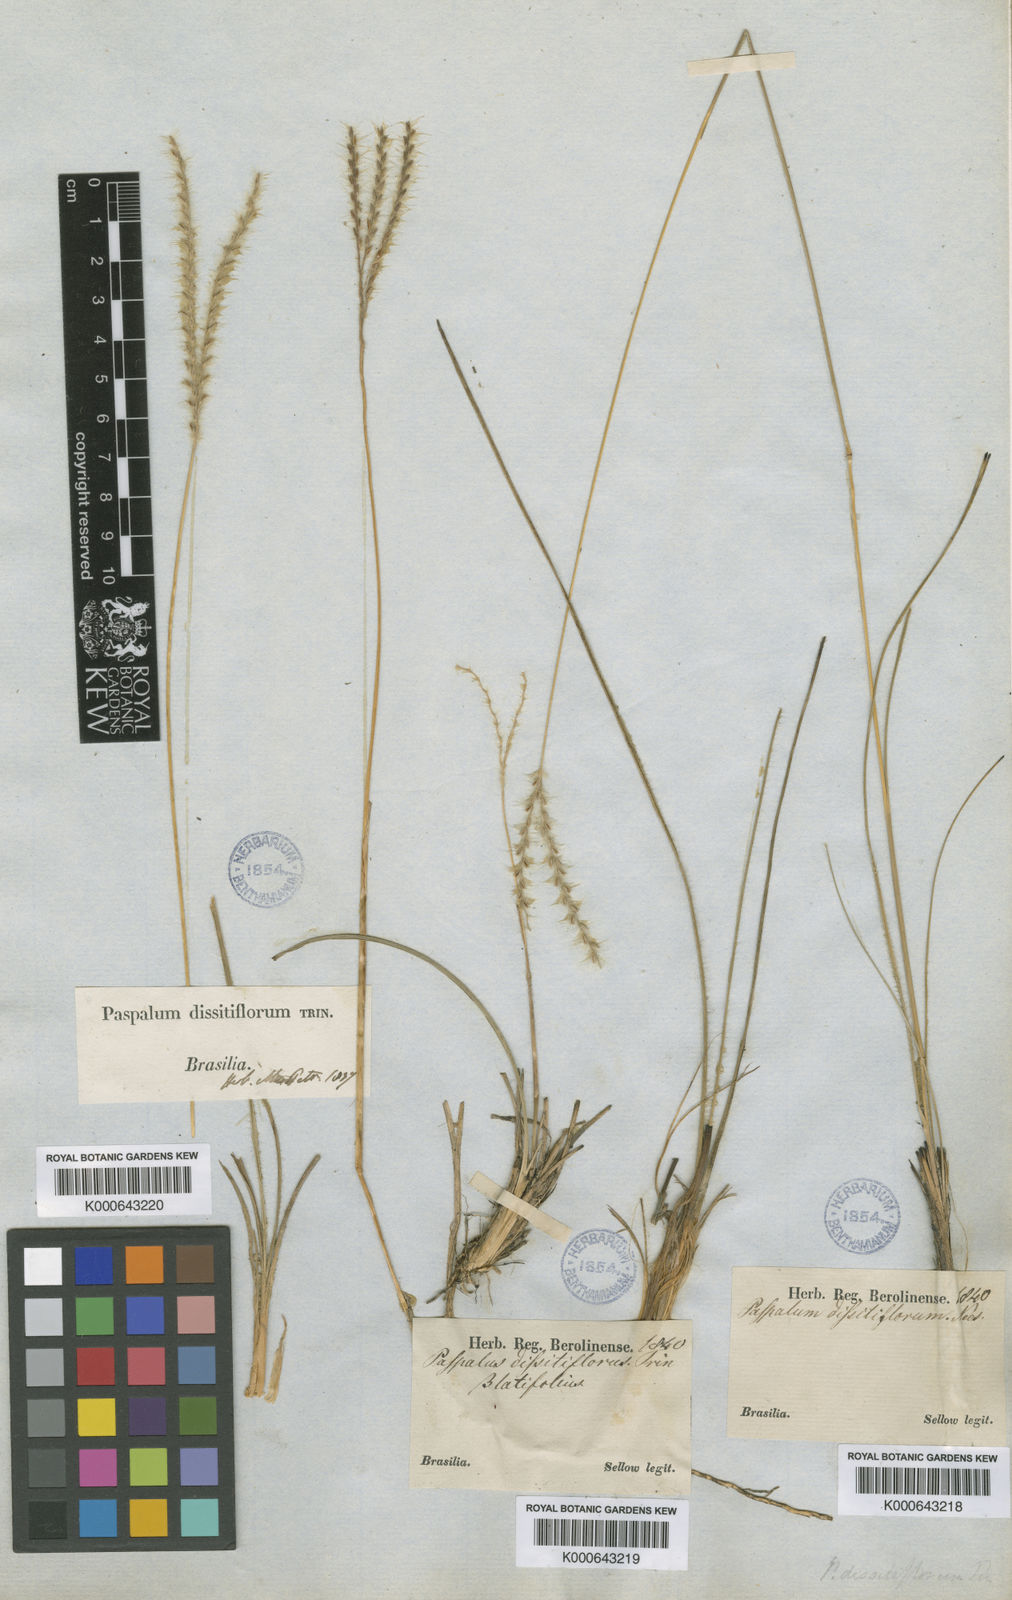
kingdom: Plantae
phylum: Tracheophyta
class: Liliopsida
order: Poales
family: Poaceae
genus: Axonopus
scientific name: Axonopus brasiliensis
